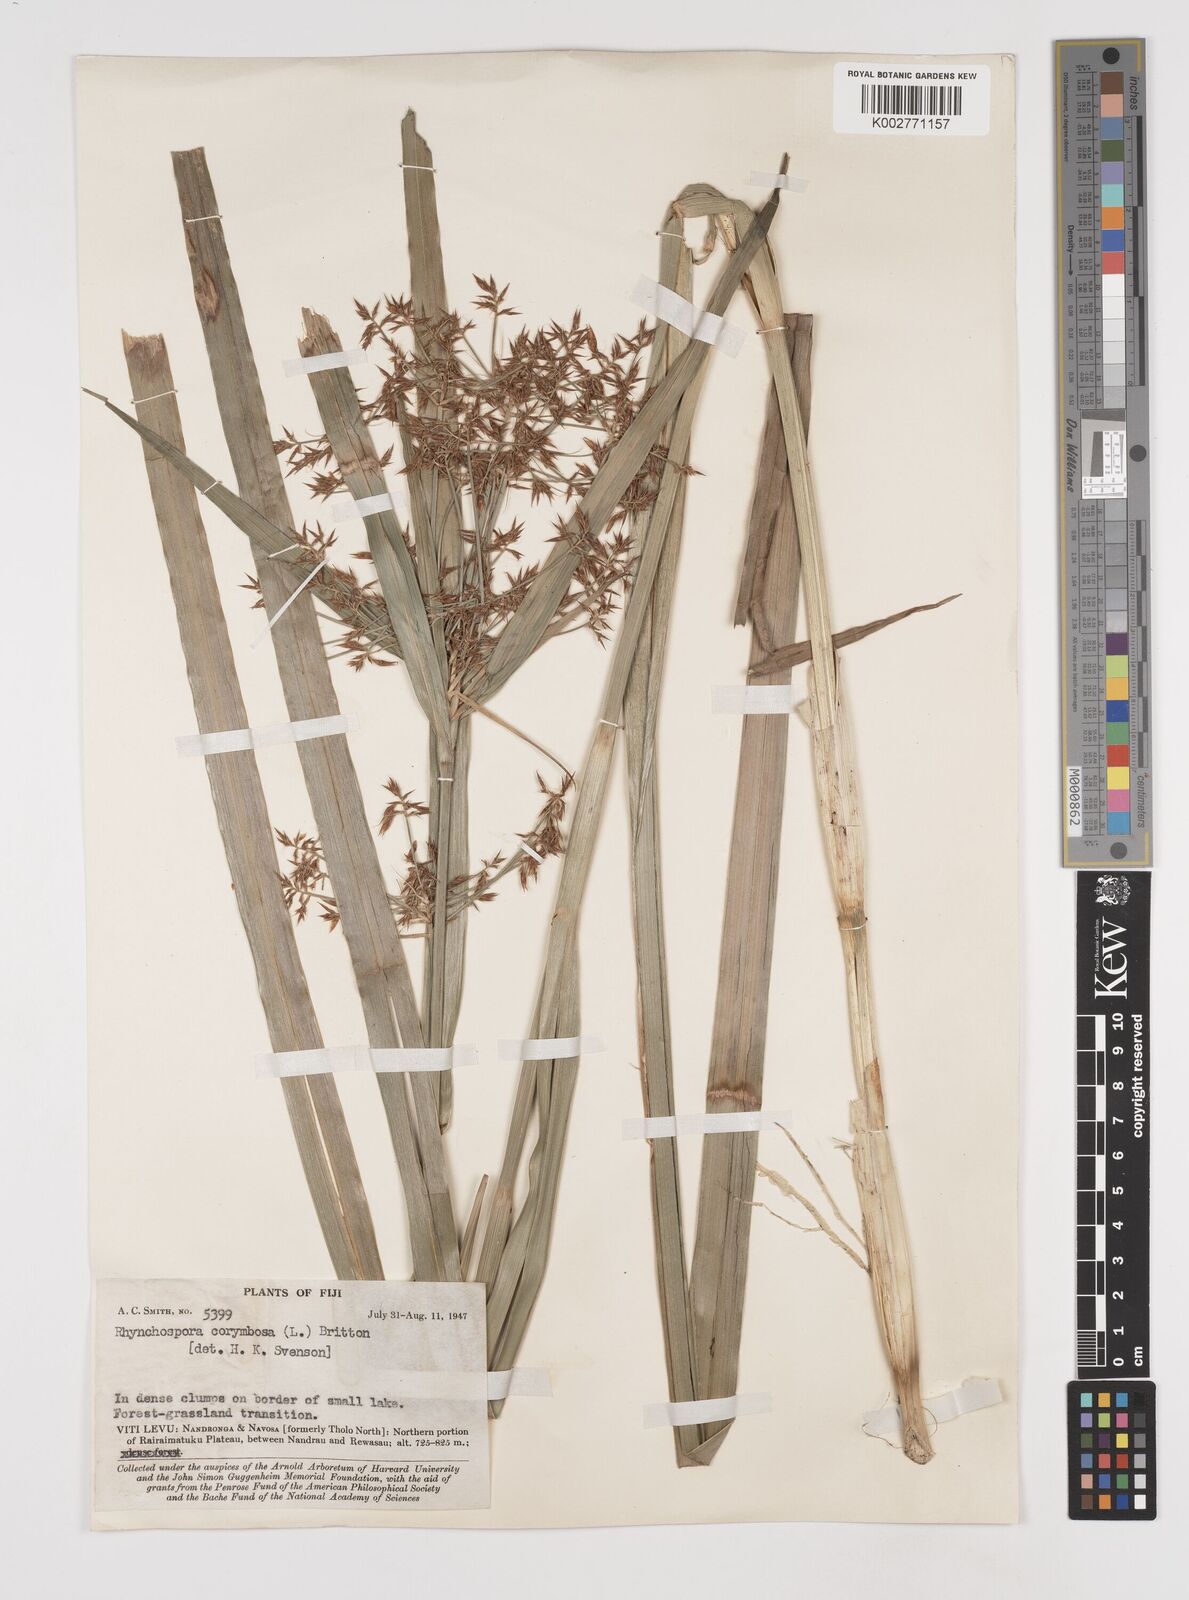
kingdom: Plantae
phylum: Tracheophyta
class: Liliopsida
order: Poales
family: Cyperaceae
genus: Rhynchospora
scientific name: Rhynchospora corymbosa
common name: Golden beak sedge
